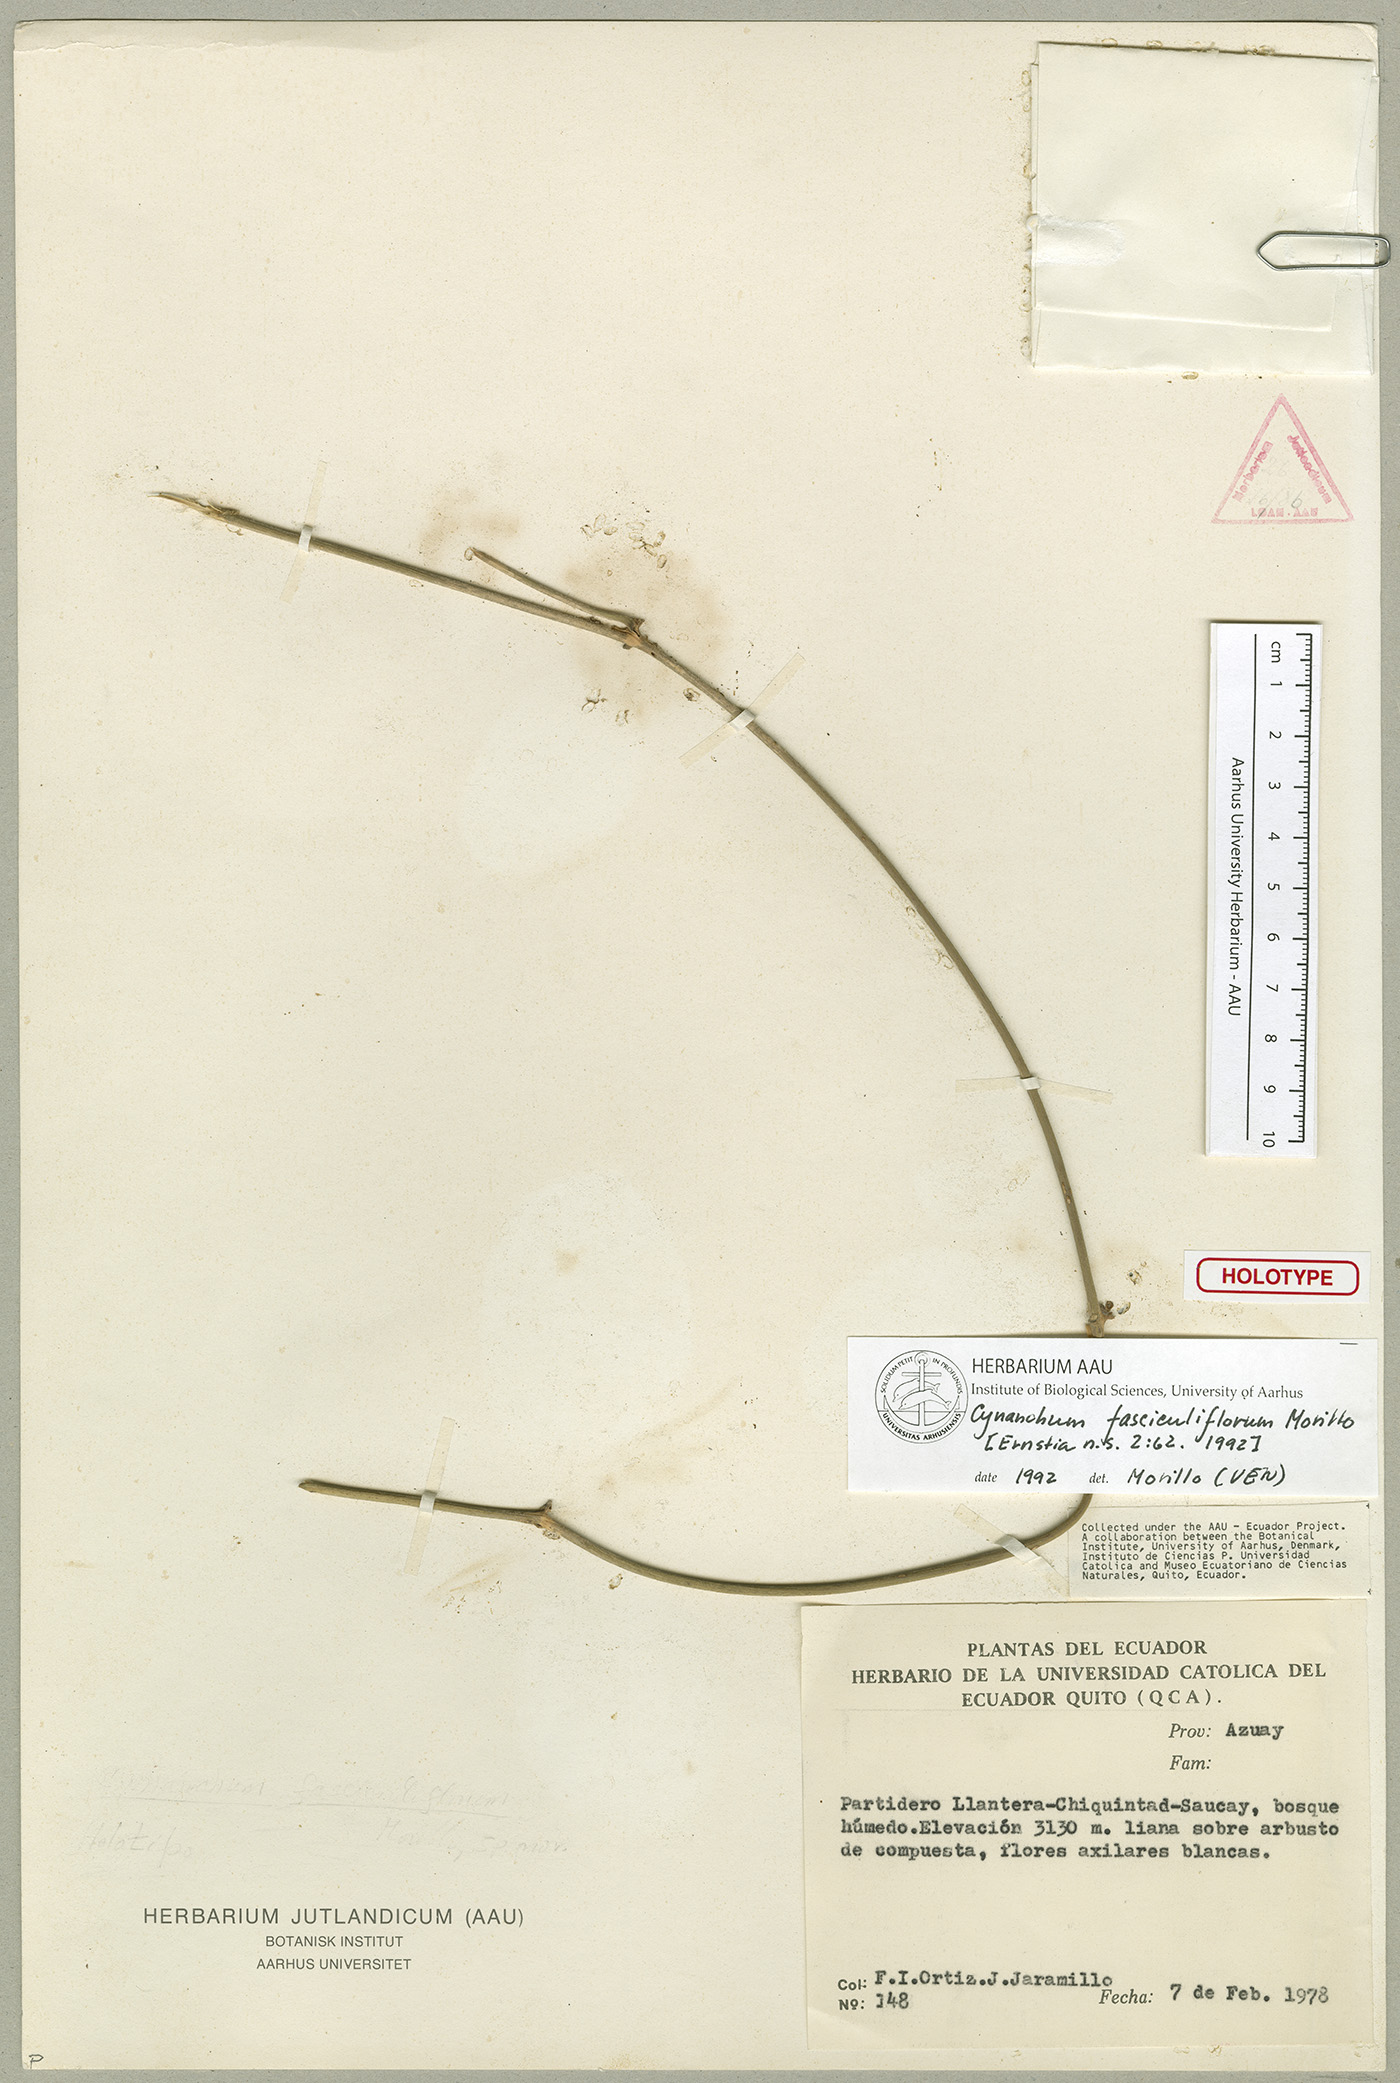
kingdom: Plantae
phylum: Tracheophyta
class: Magnoliopsida
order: Gentianales
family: Apocynaceae
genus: Cynanchum
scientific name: Cynanchum fasciculiflorum
